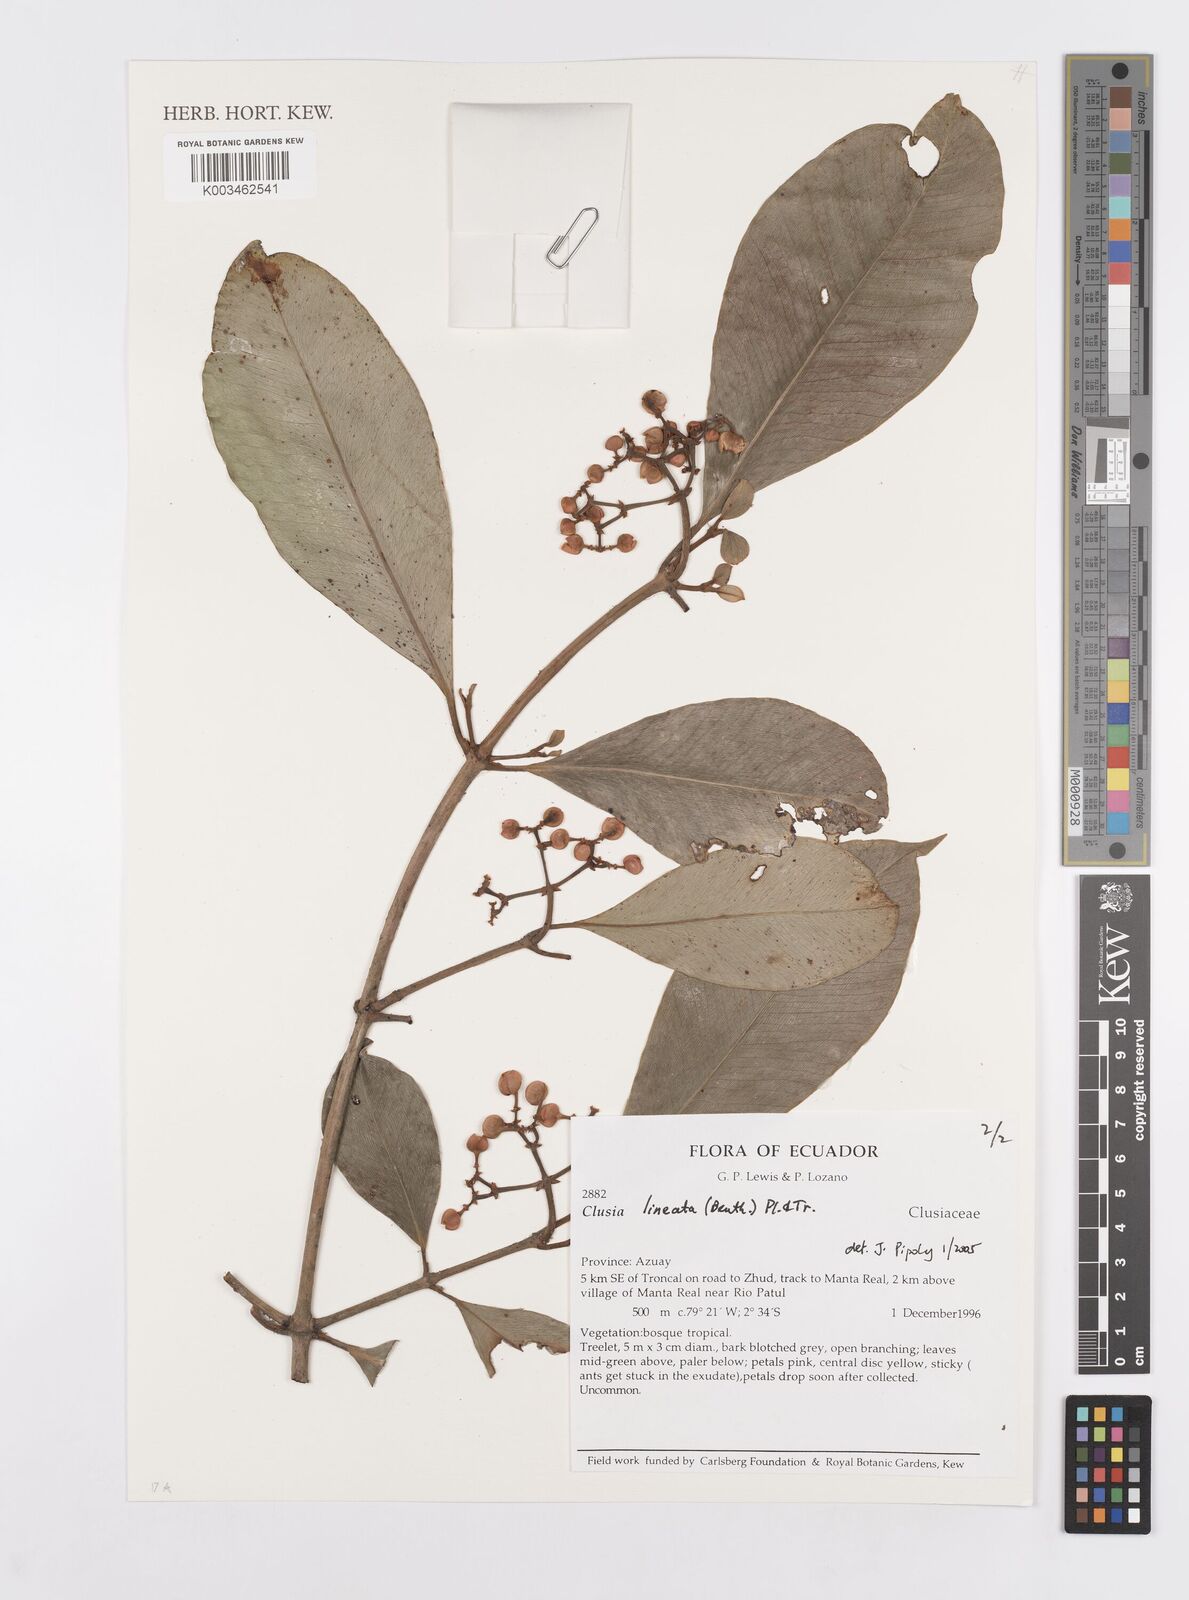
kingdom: Plantae
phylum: Tracheophyta
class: Magnoliopsida
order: Malpighiales
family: Clusiaceae
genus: Clusia
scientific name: Clusia lineata
